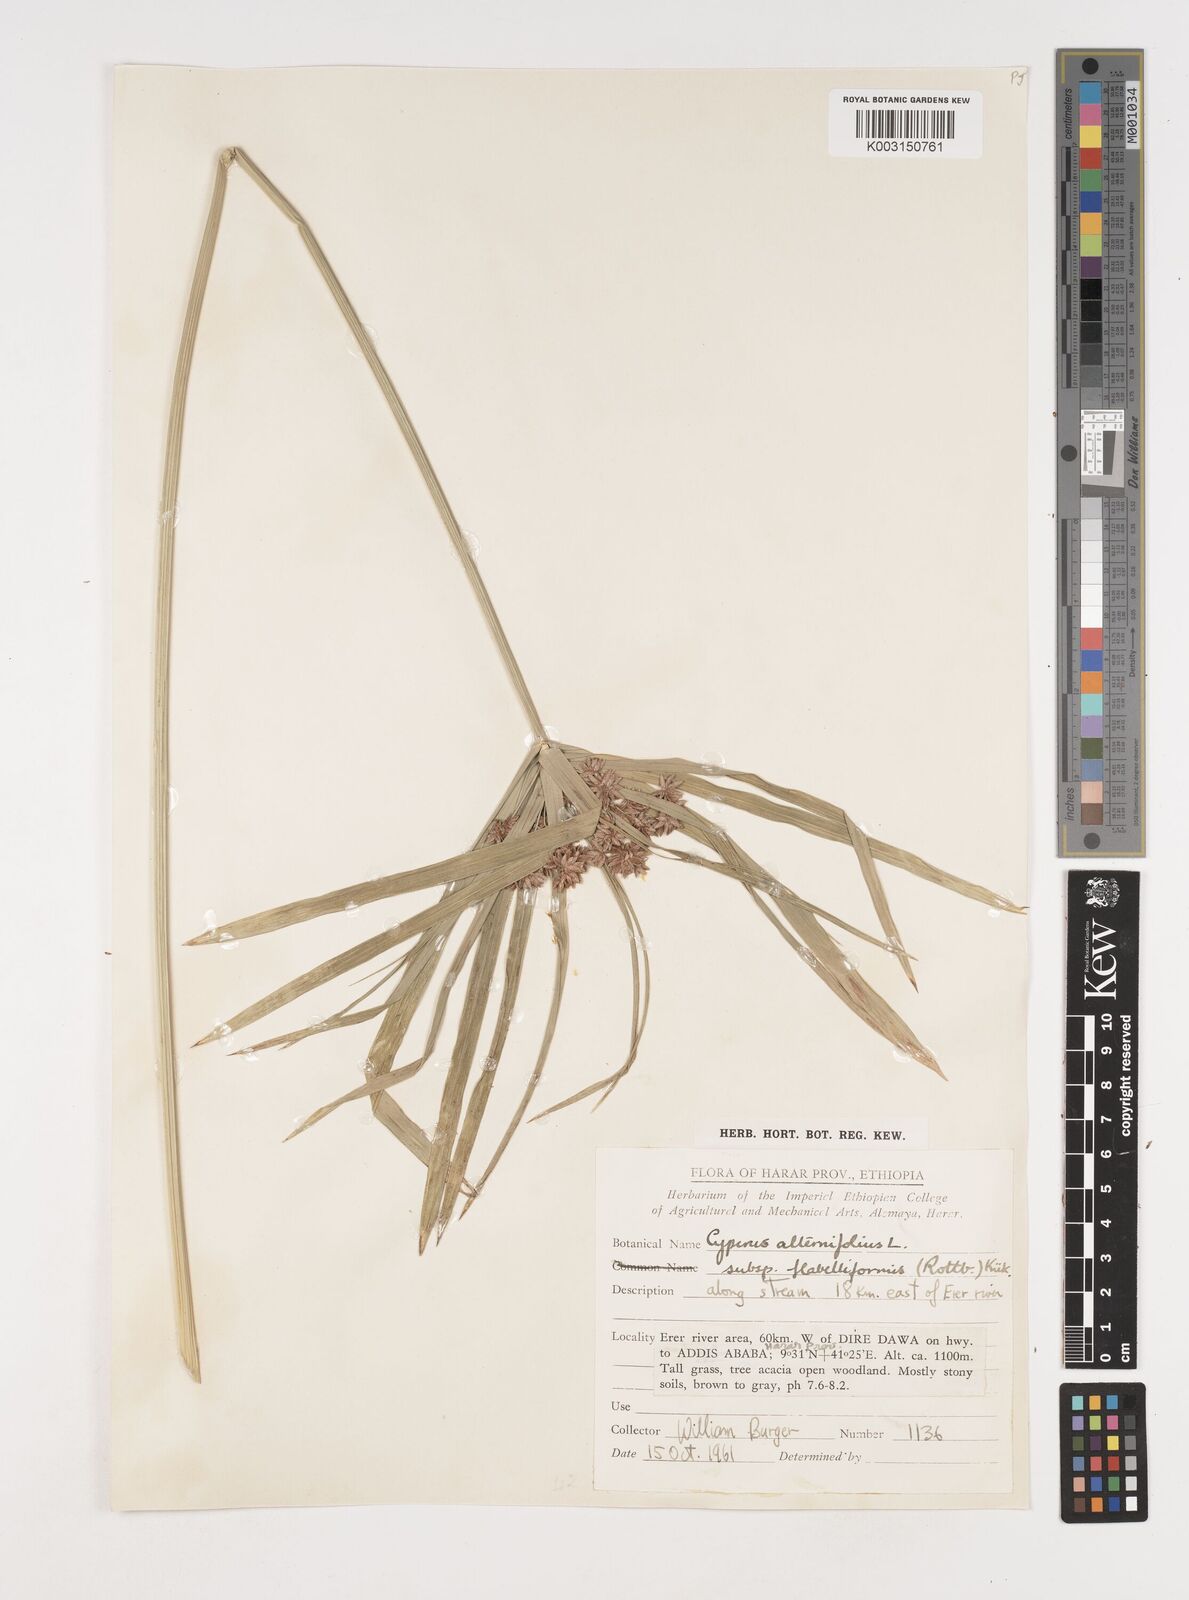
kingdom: Plantae
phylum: Tracheophyta
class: Liliopsida
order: Poales
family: Cyperaceae
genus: Cyperus
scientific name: Cyperus alternifolius
